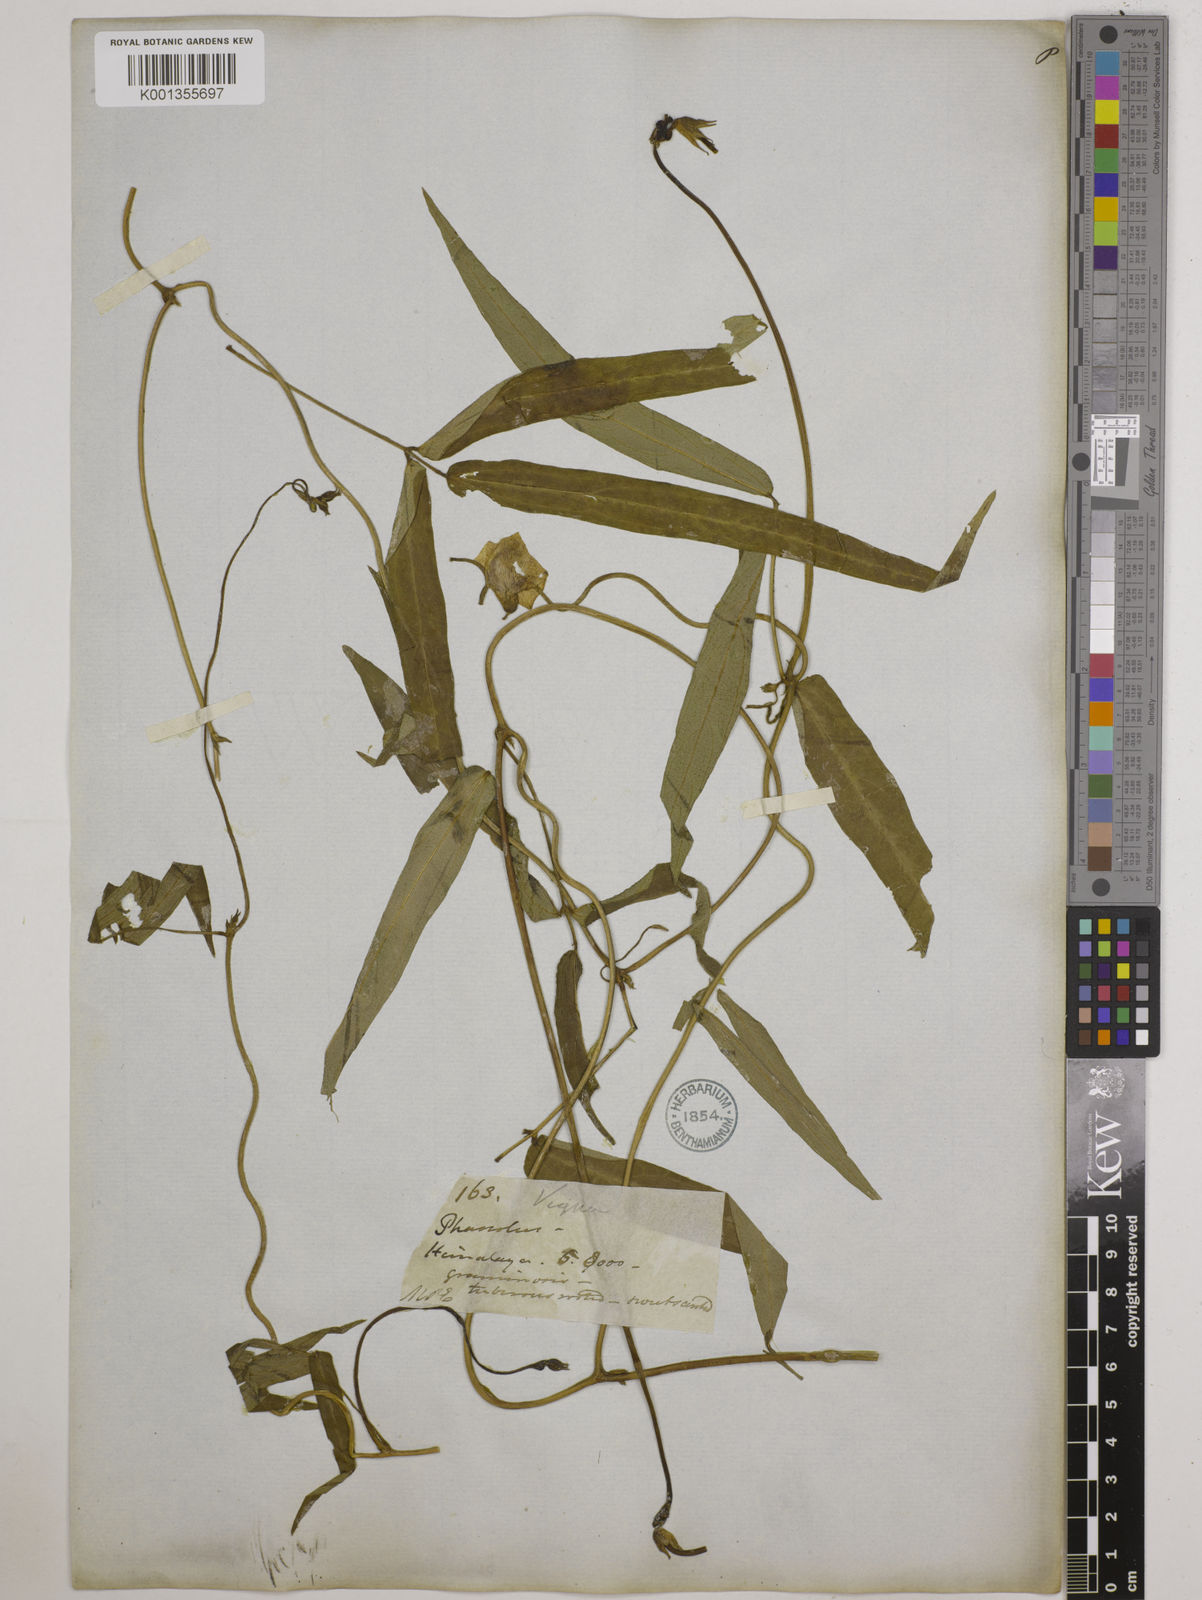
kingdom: Plantae
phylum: Tracheophyta
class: Magnoliopsida
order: Fabales
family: Fabaceae
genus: Vigna
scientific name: Vigna vexillata
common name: Zombi pea
